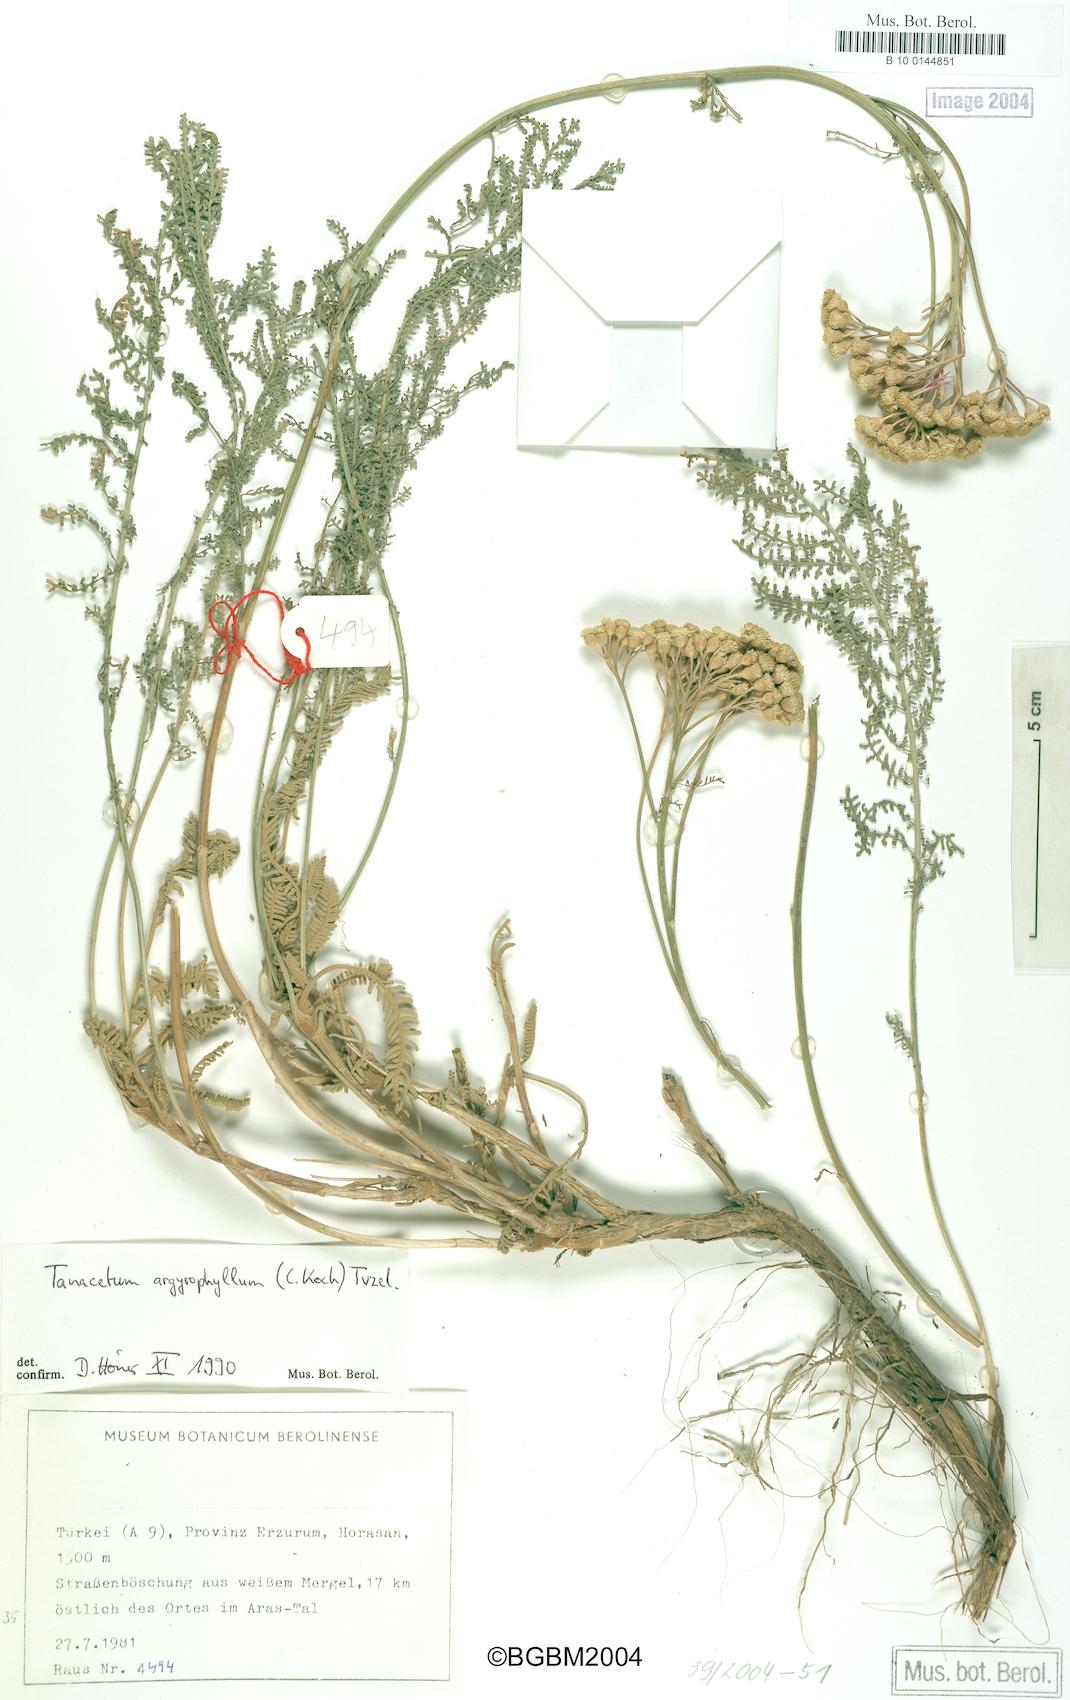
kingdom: Plantae
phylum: Tracheophyta
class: Magnoliopsida
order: Asterales
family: Asteraceae
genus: Tanacetum
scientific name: Tanacetum polycephalum
